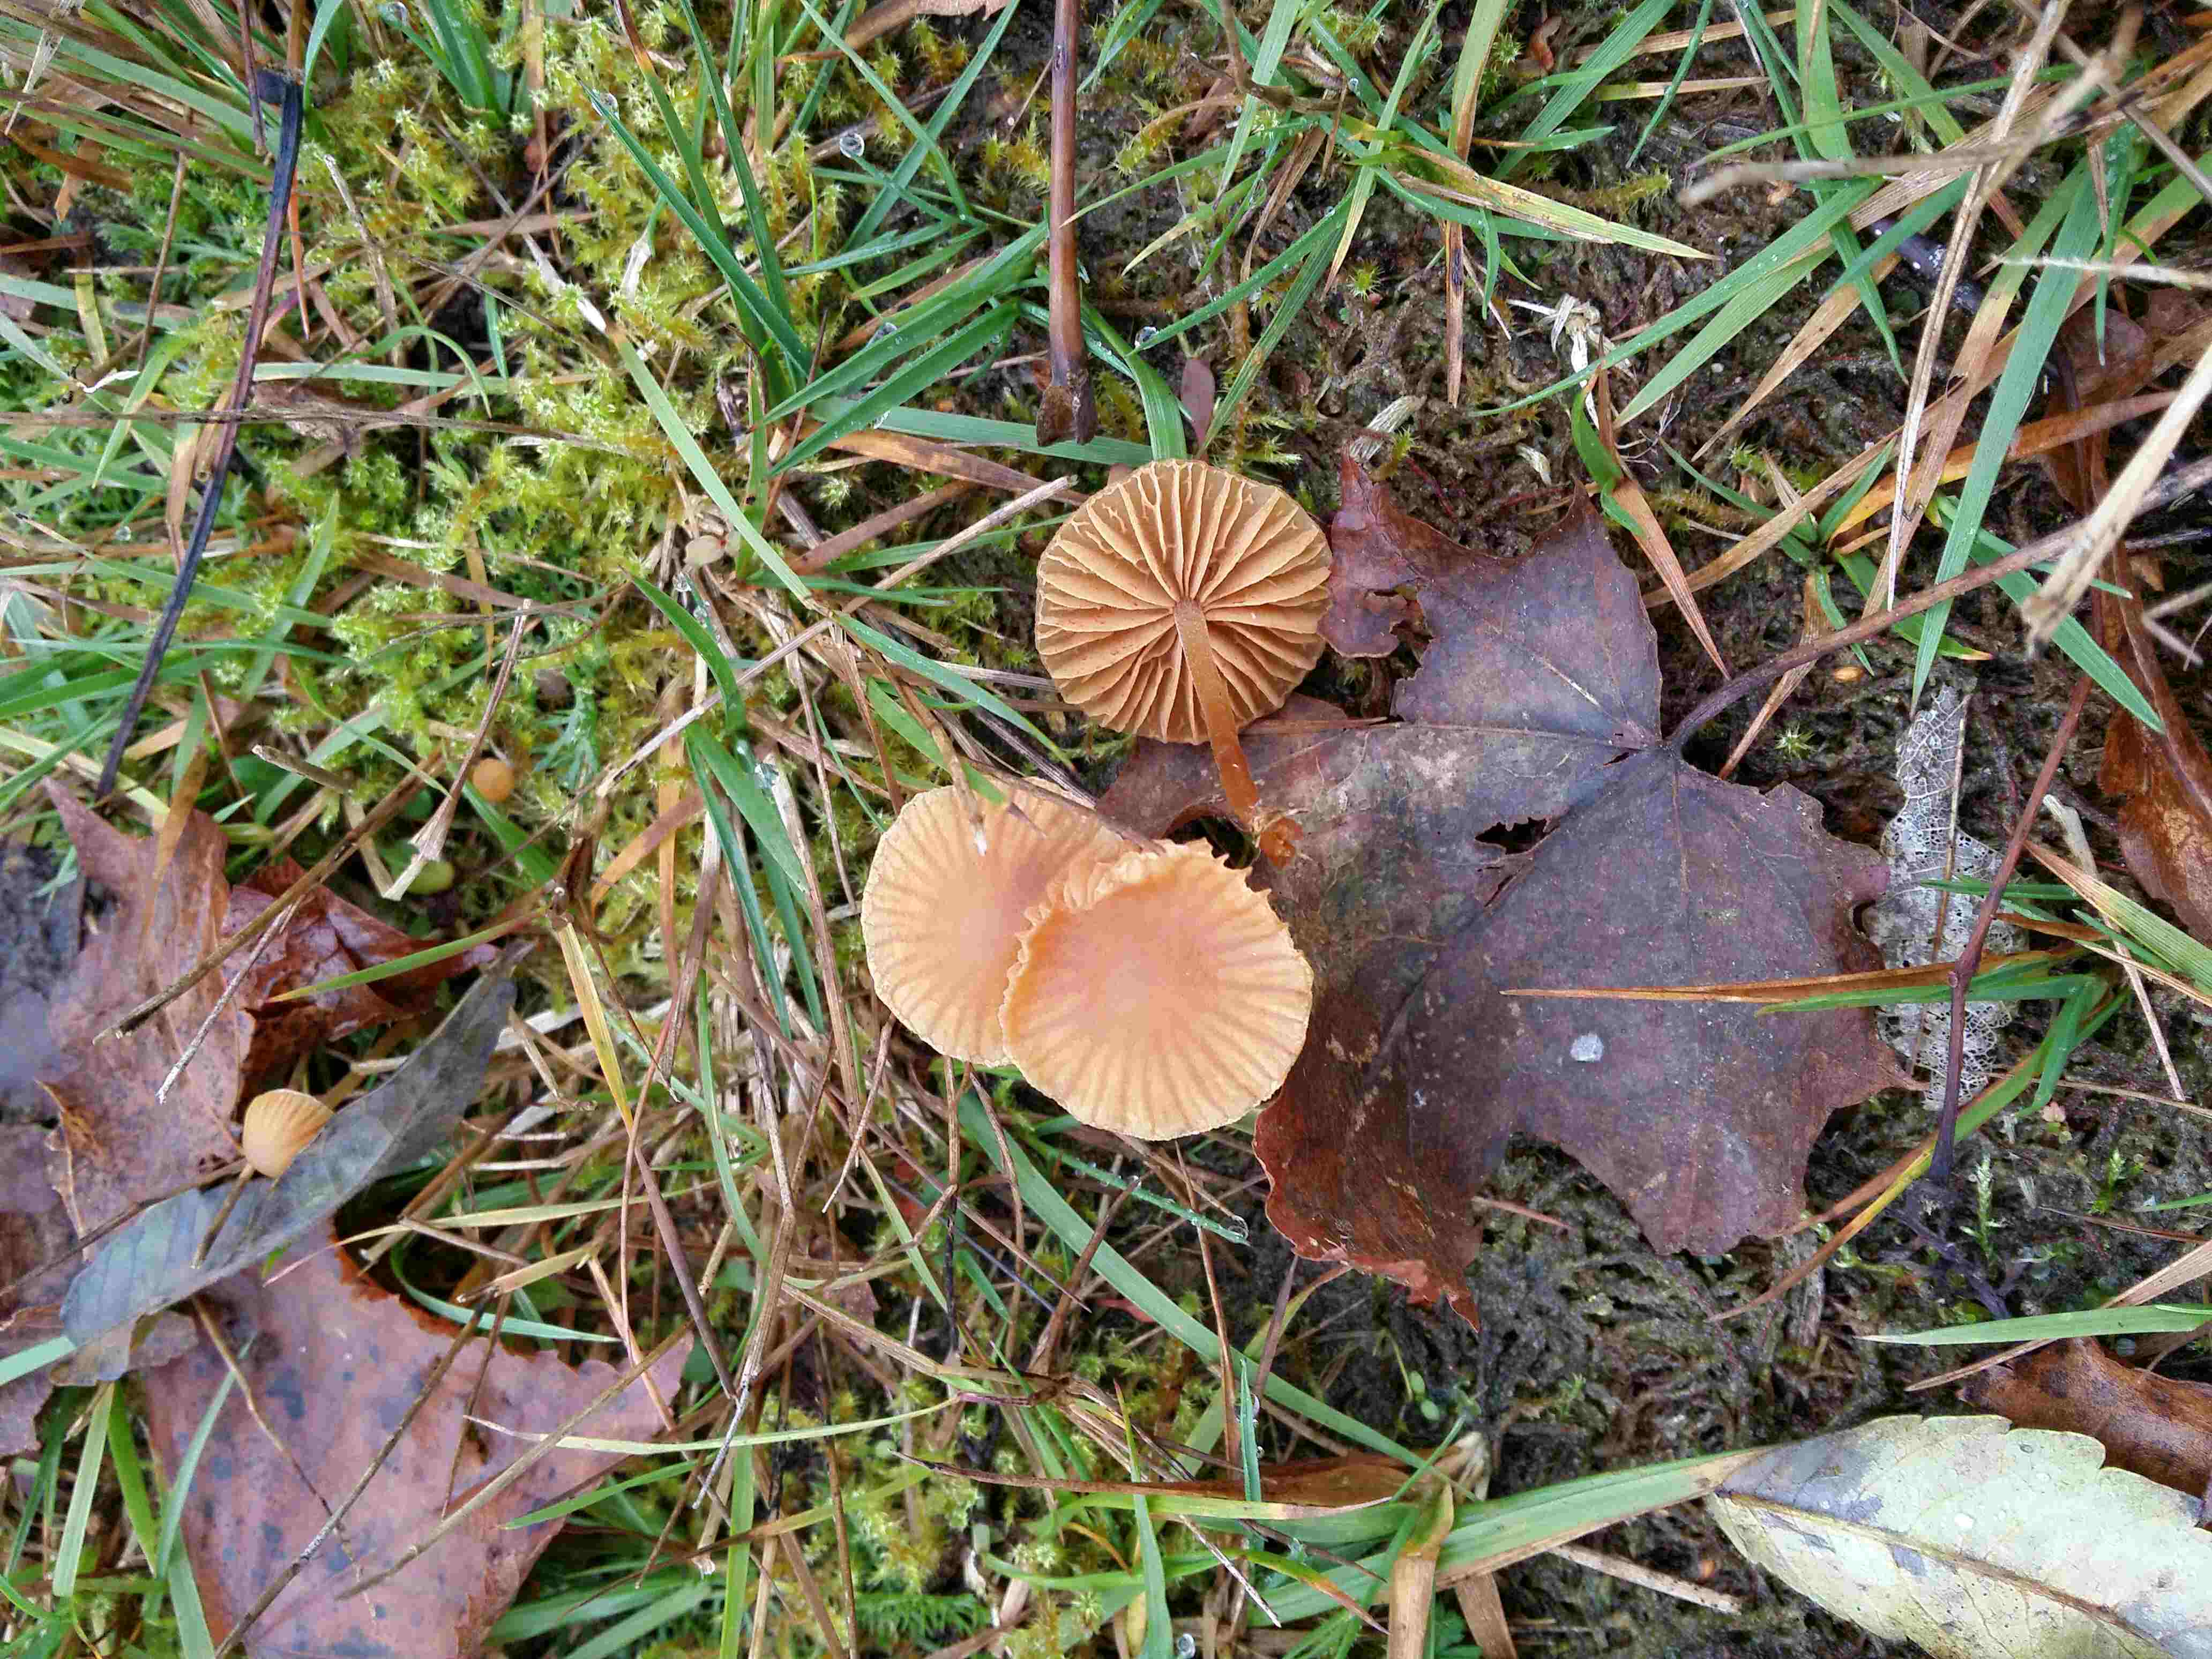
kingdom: Fungi
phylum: Basidiomycota
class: Agaricomycetes
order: Agaricales
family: Hymenogastraceae
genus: Galerina
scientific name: Galerina
